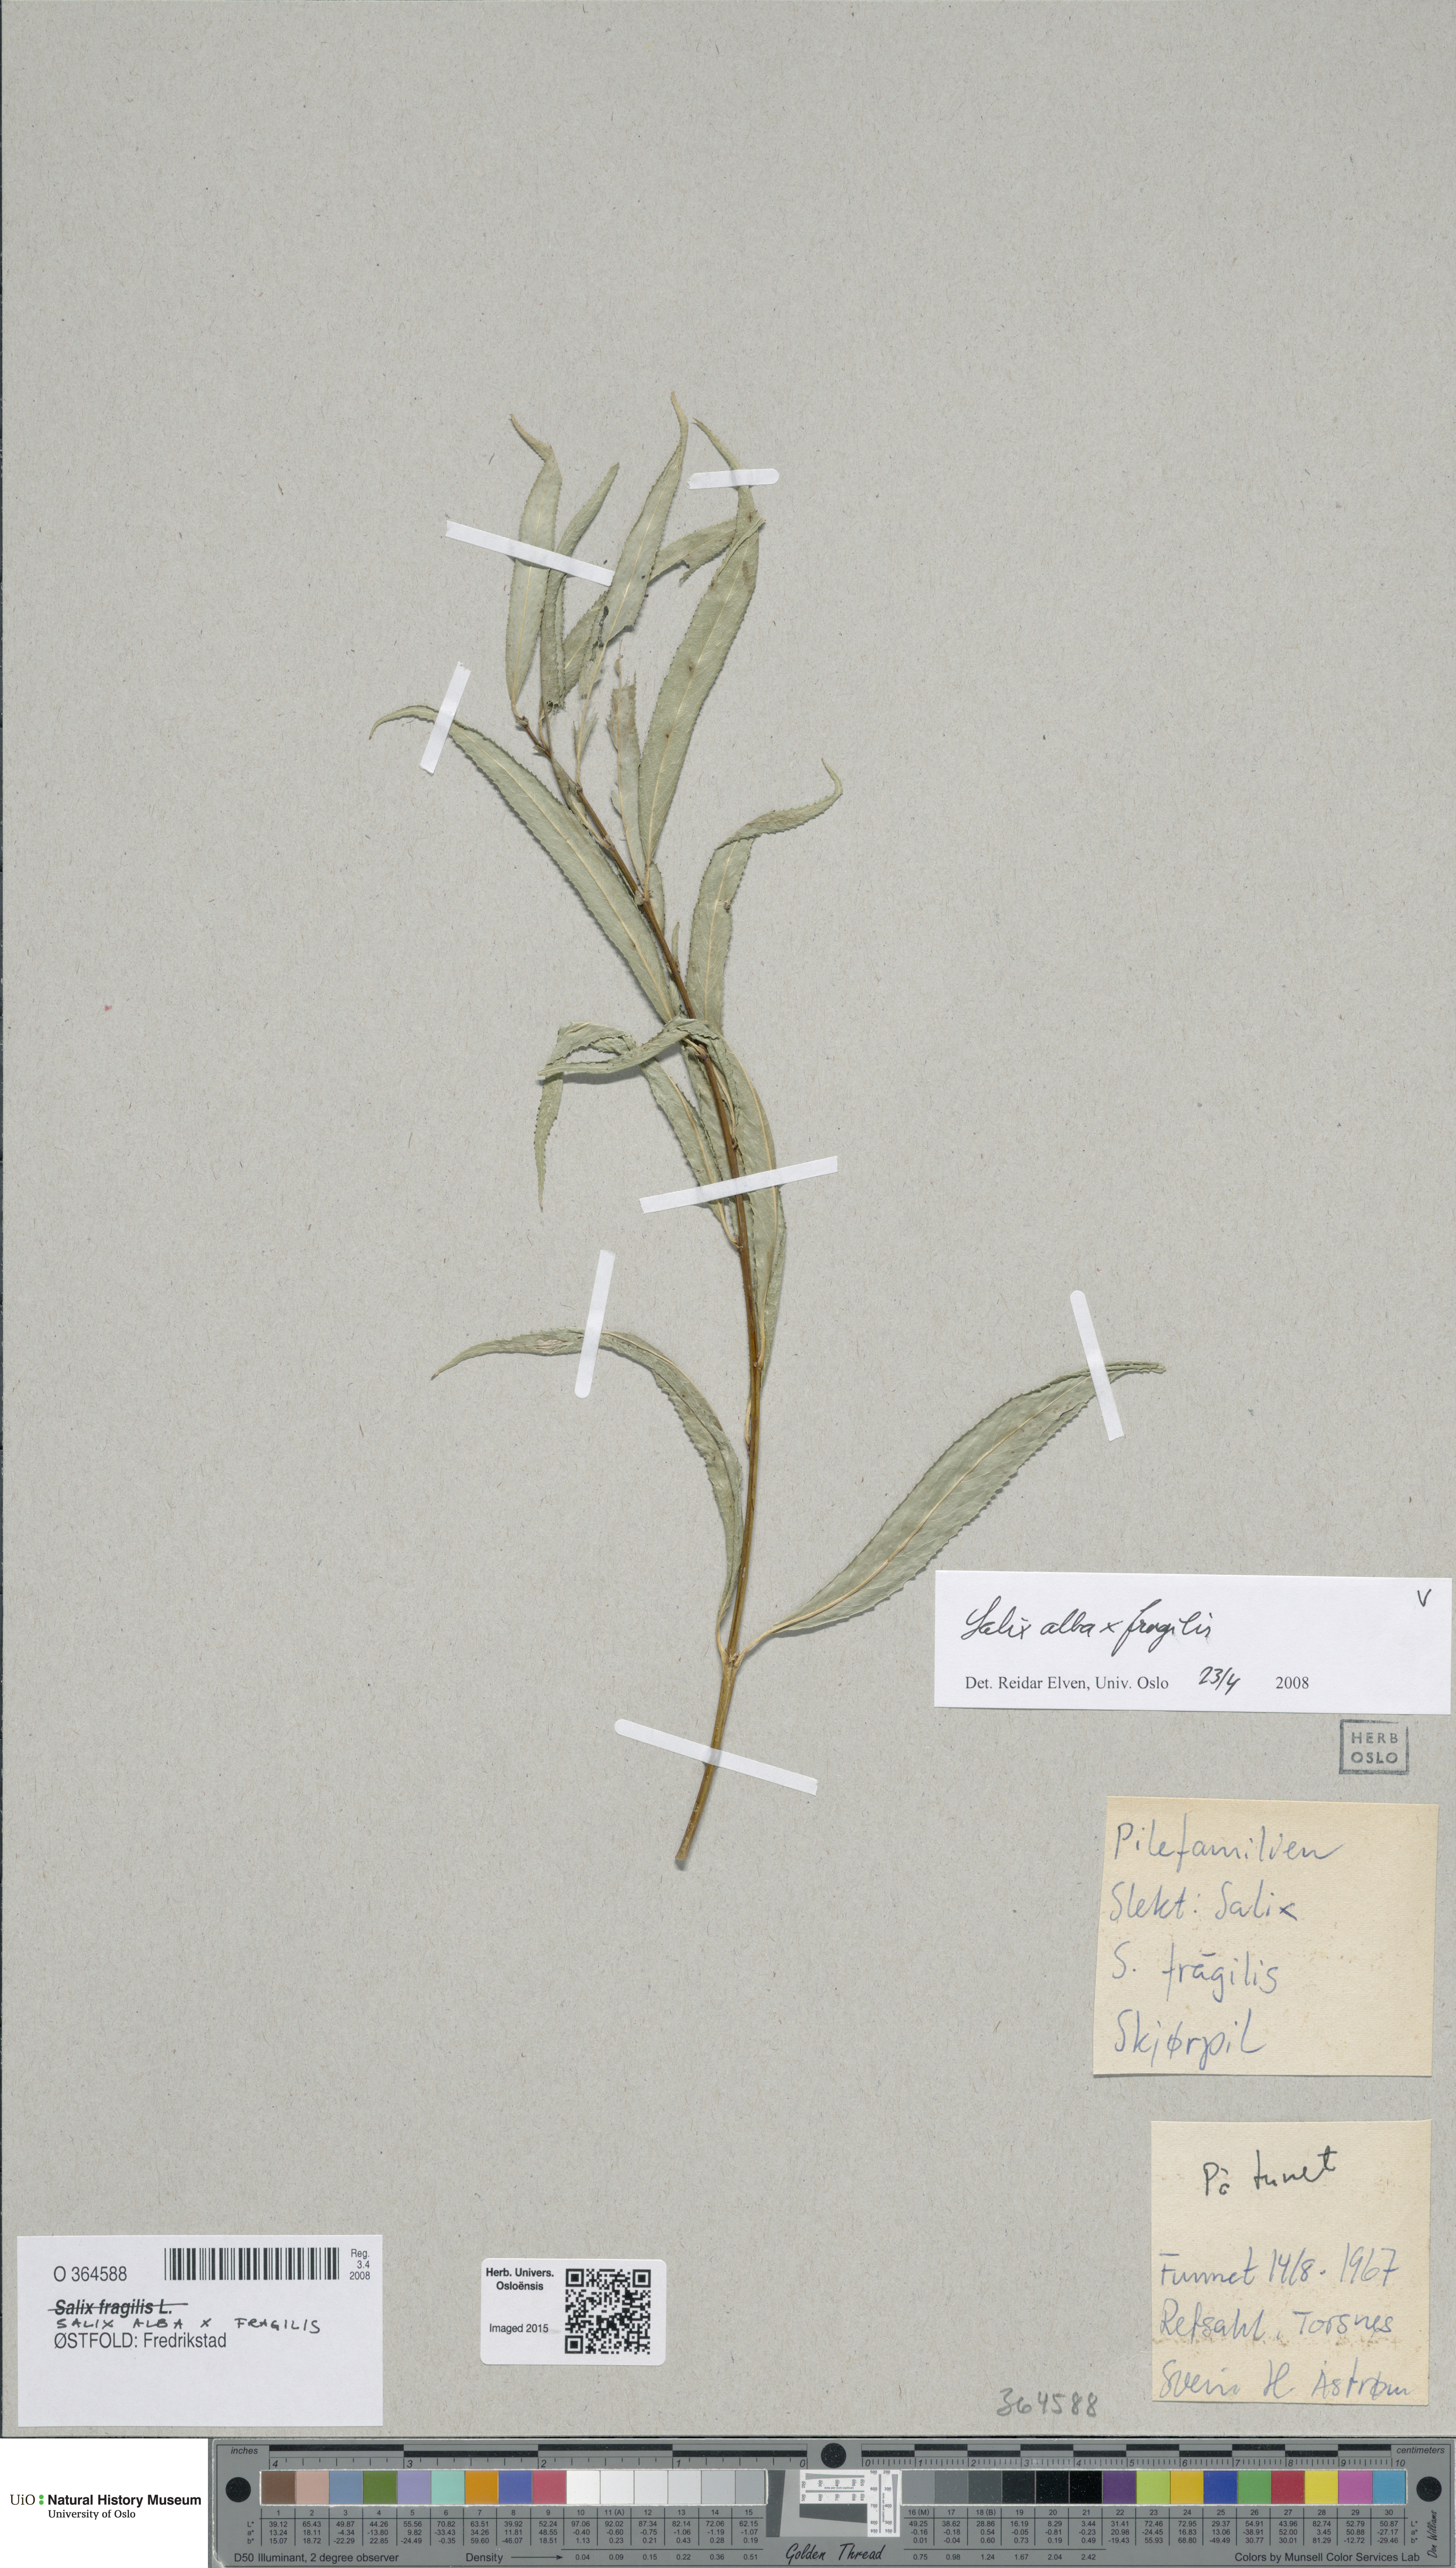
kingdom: Plantae
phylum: Tracheophyta
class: Magnoliopsida
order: Malpighiales
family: Salicaceae
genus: Salix
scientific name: Salix
